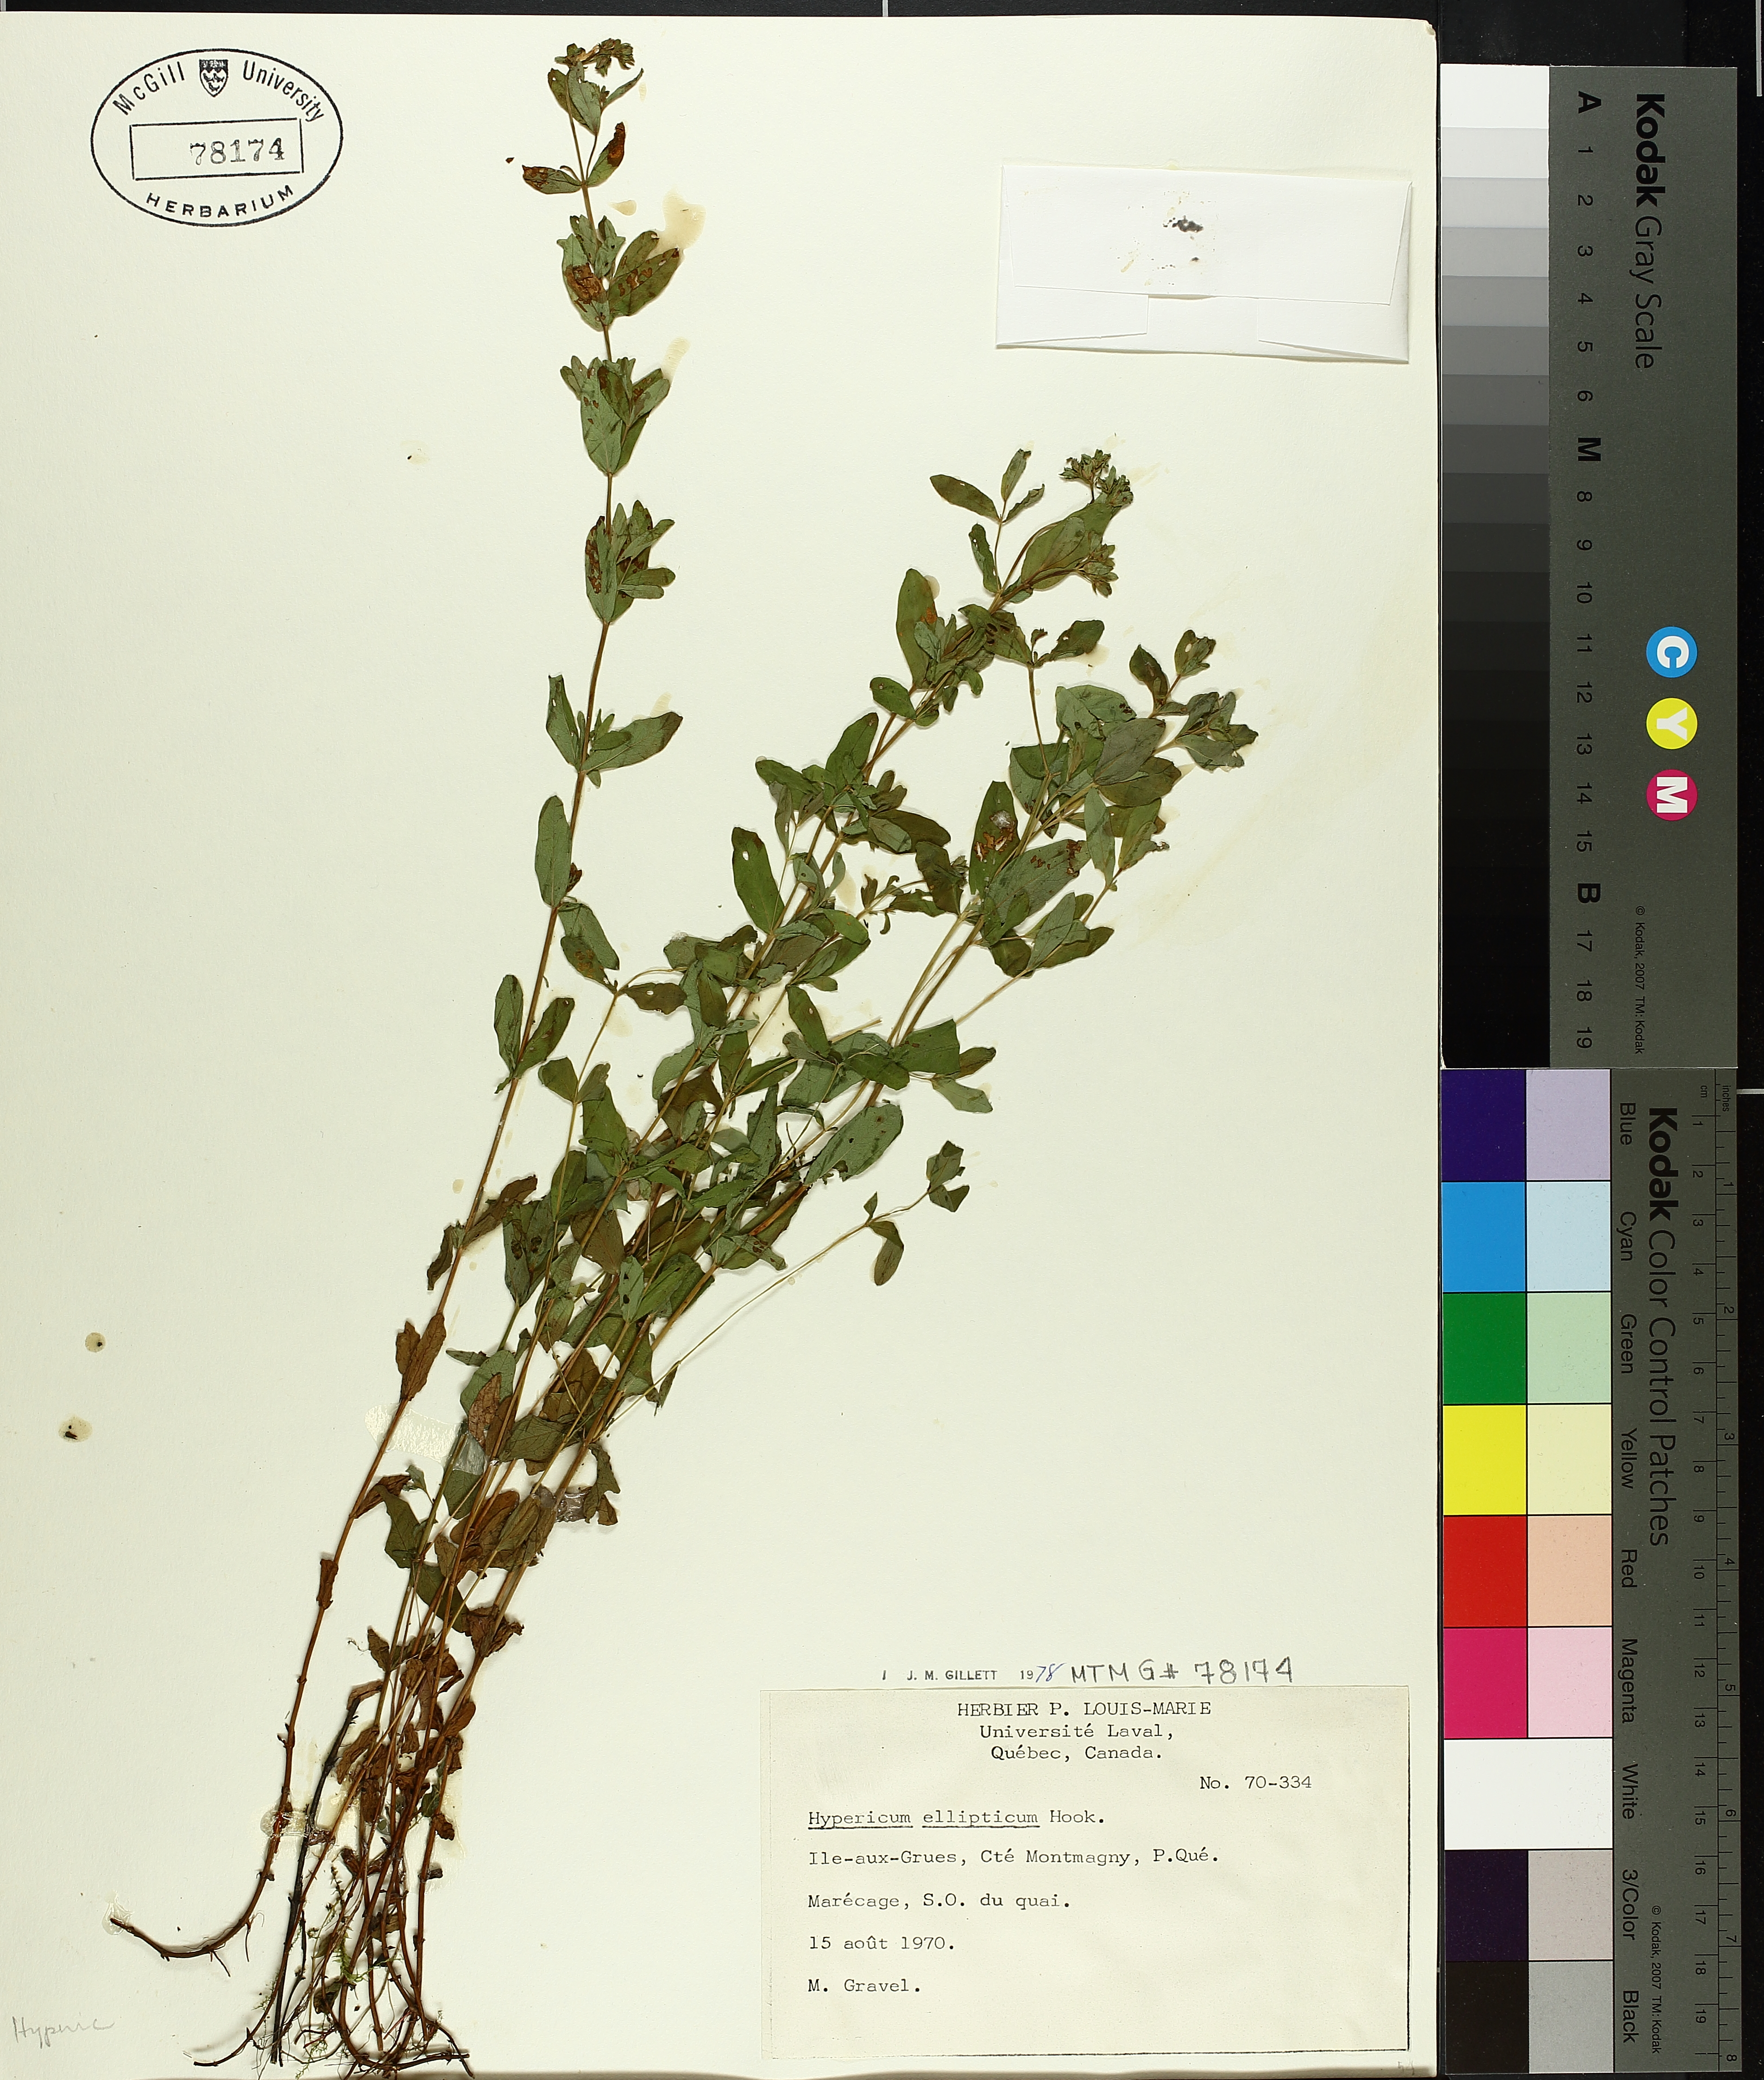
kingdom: Plantae
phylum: Tracheophyta
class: Magnoliopsida
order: Malpighiales
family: Hypericaceae
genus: Hypericum
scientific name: Hypericum ellipticum
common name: Elliptic st. john's-wort
